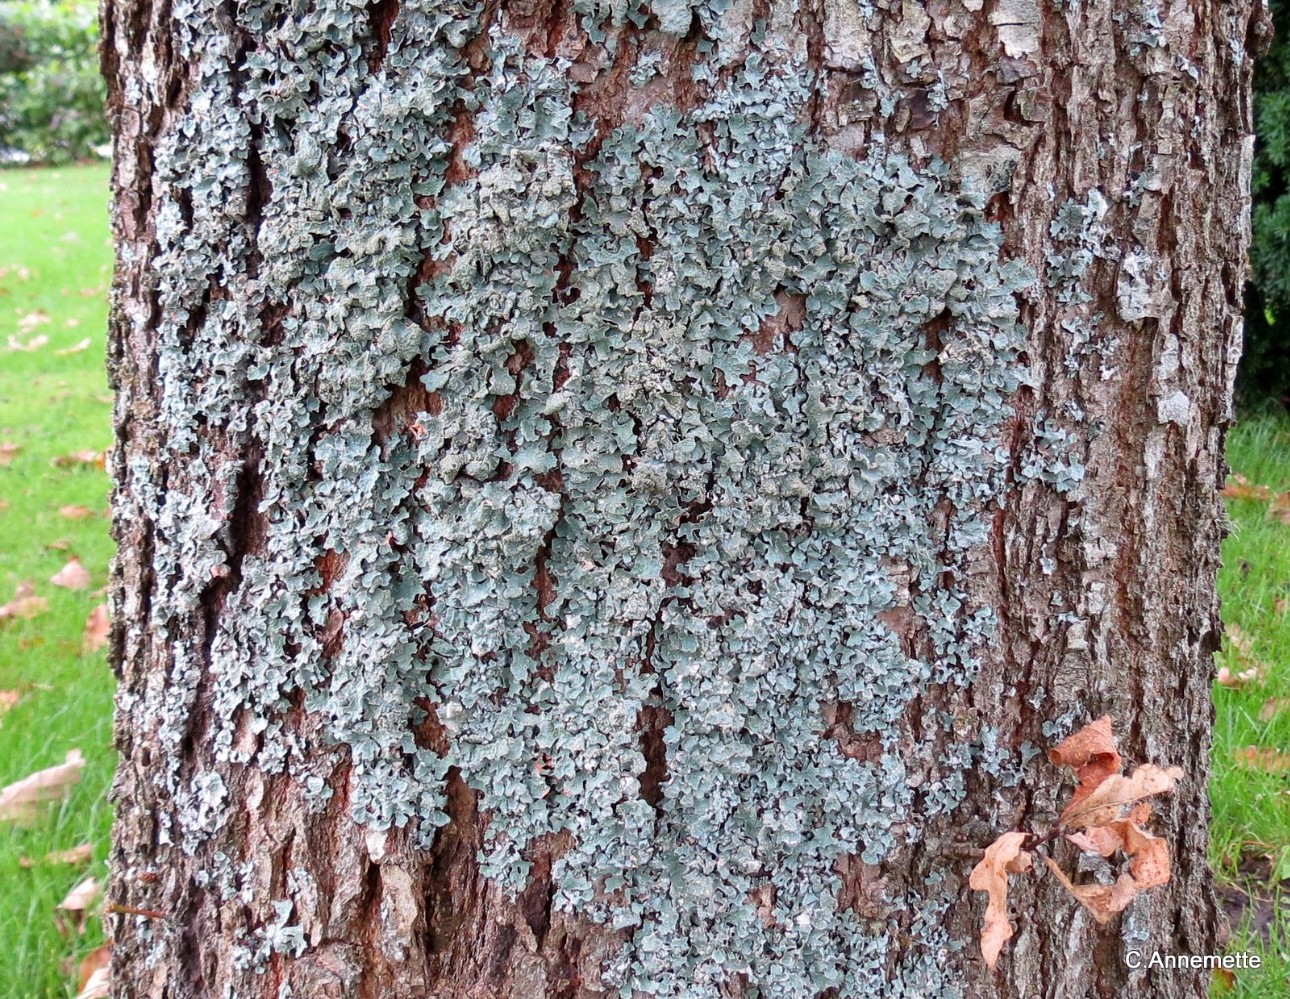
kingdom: Fungi
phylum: Ascomycota
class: Lecanoromycetes
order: Lecanorales
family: Parmeliaceae
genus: Parmelia
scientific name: Parmelia sulcata
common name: rynket skållav
